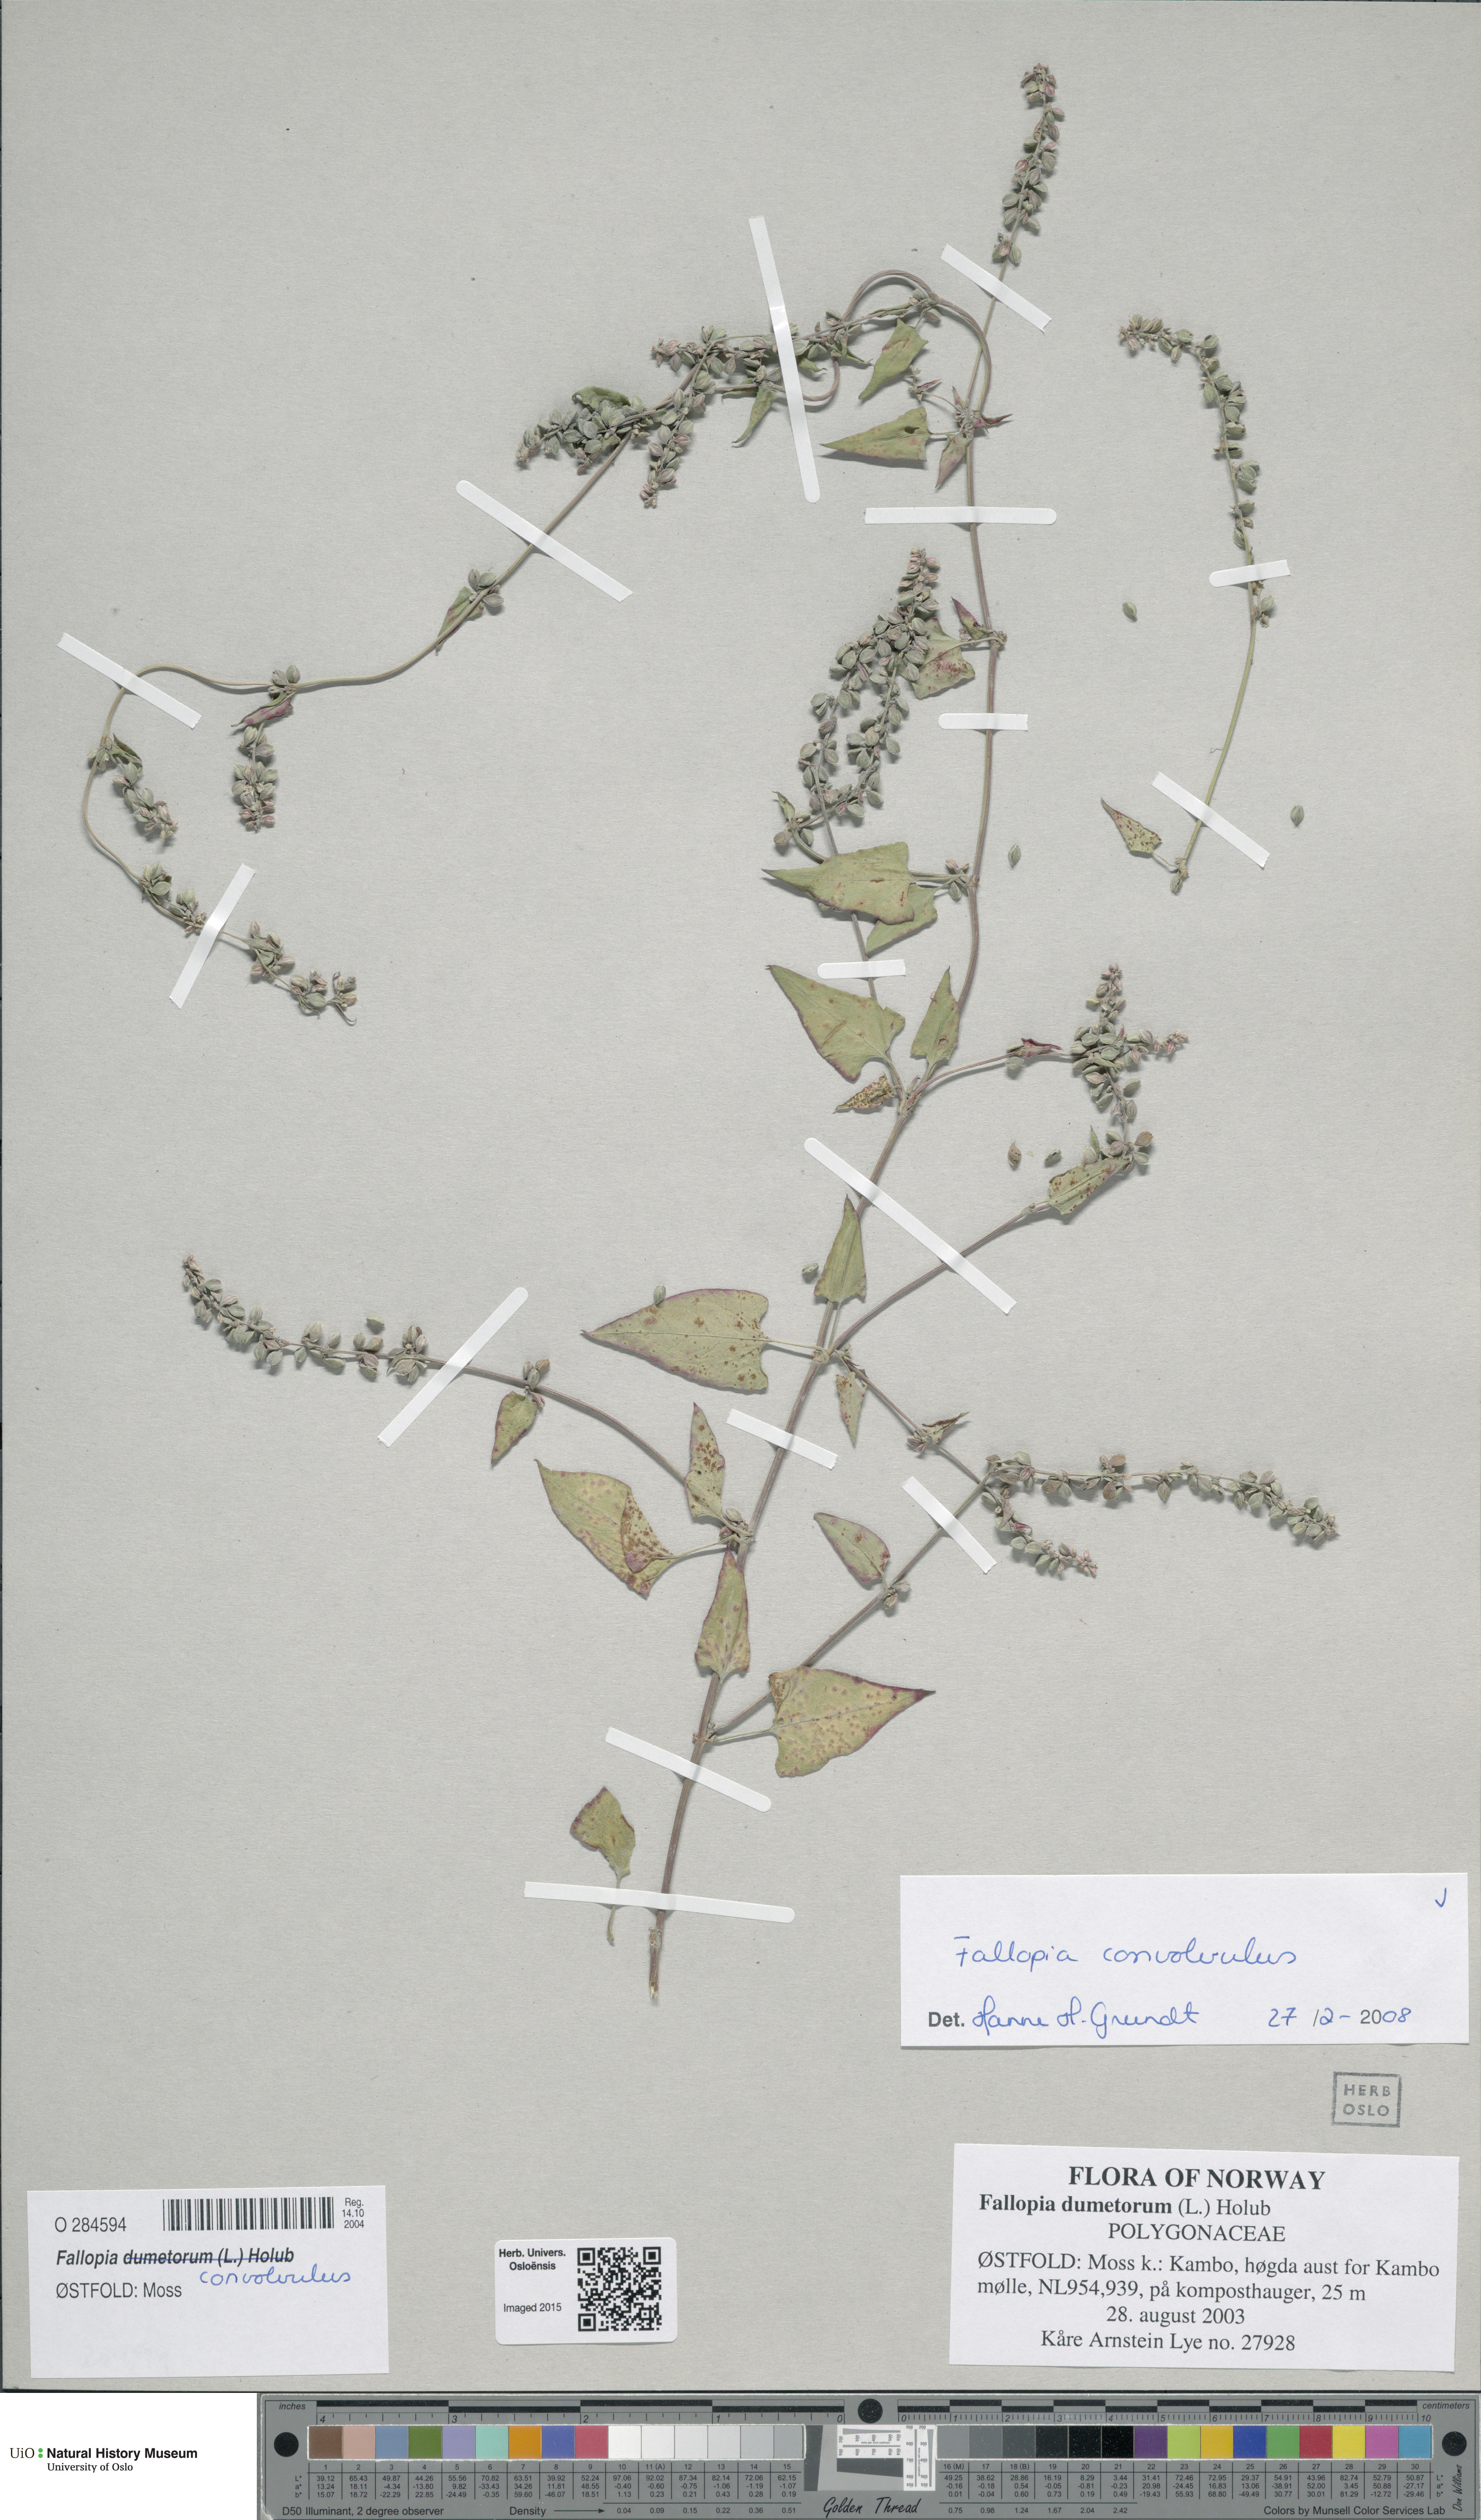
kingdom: Plantae
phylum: Tracheophyta
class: Magnoliopsida
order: Caryophyllales
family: Polygonaceae
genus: Fallopia
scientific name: Fallopia convolvulus
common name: Black bindweed
